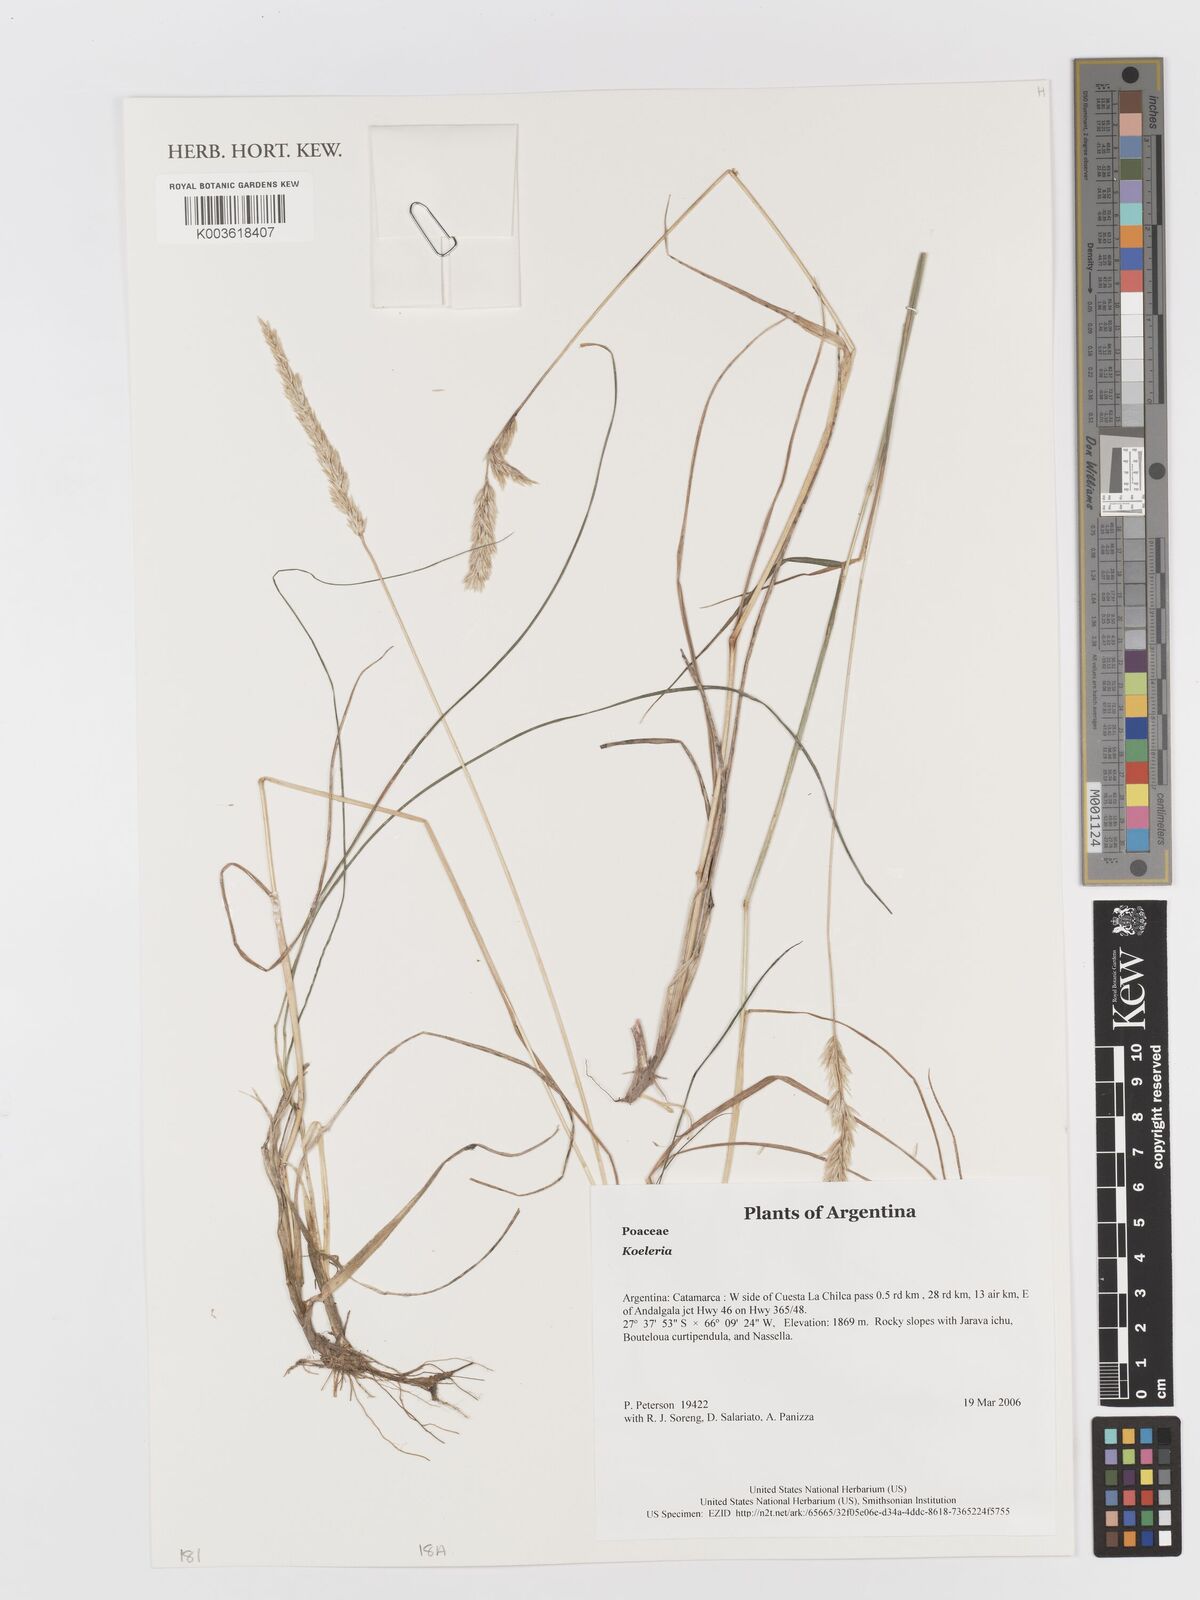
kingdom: Plantae
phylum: Tracheophyta
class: Liliopsida
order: Poales
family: Poaceae
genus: Koeleria
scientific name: Koeleria
